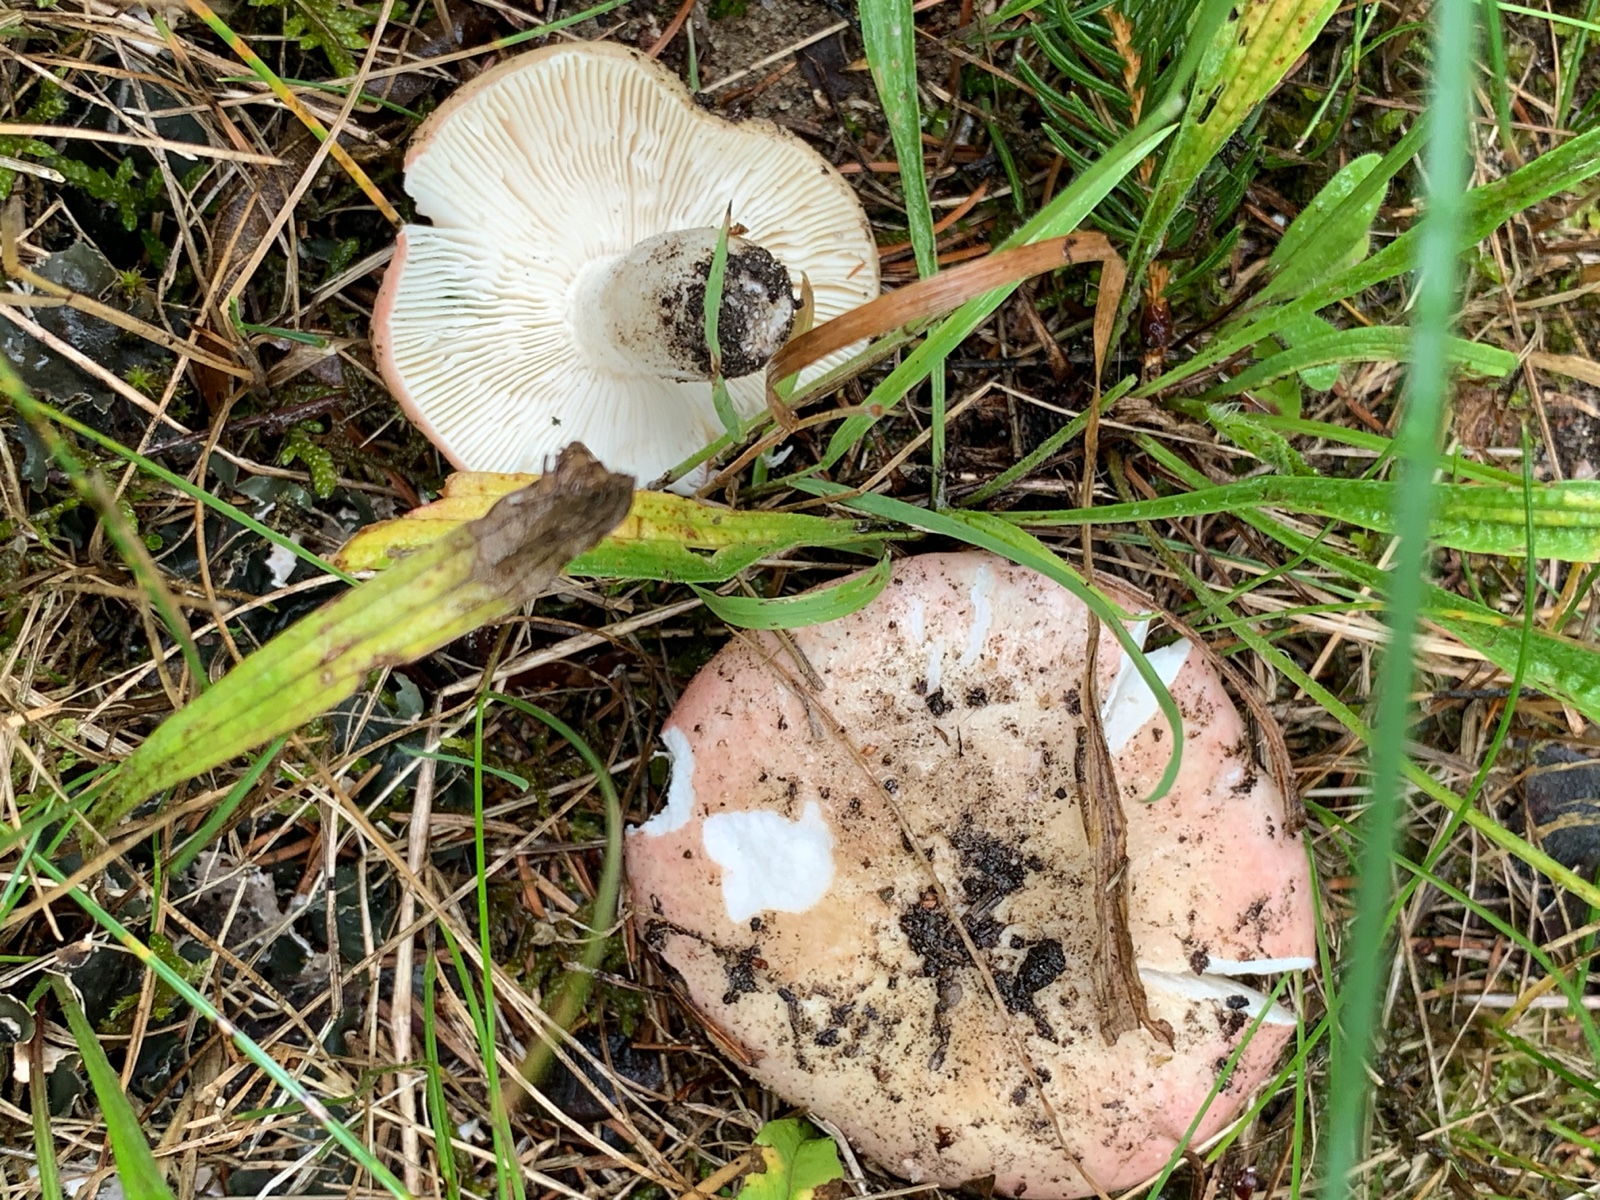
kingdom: Fungi
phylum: Basidiomycota
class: Agaricomycetes
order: Russulales
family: Russulaceae
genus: Russula
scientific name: Russula depallens
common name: falmende skørhat
